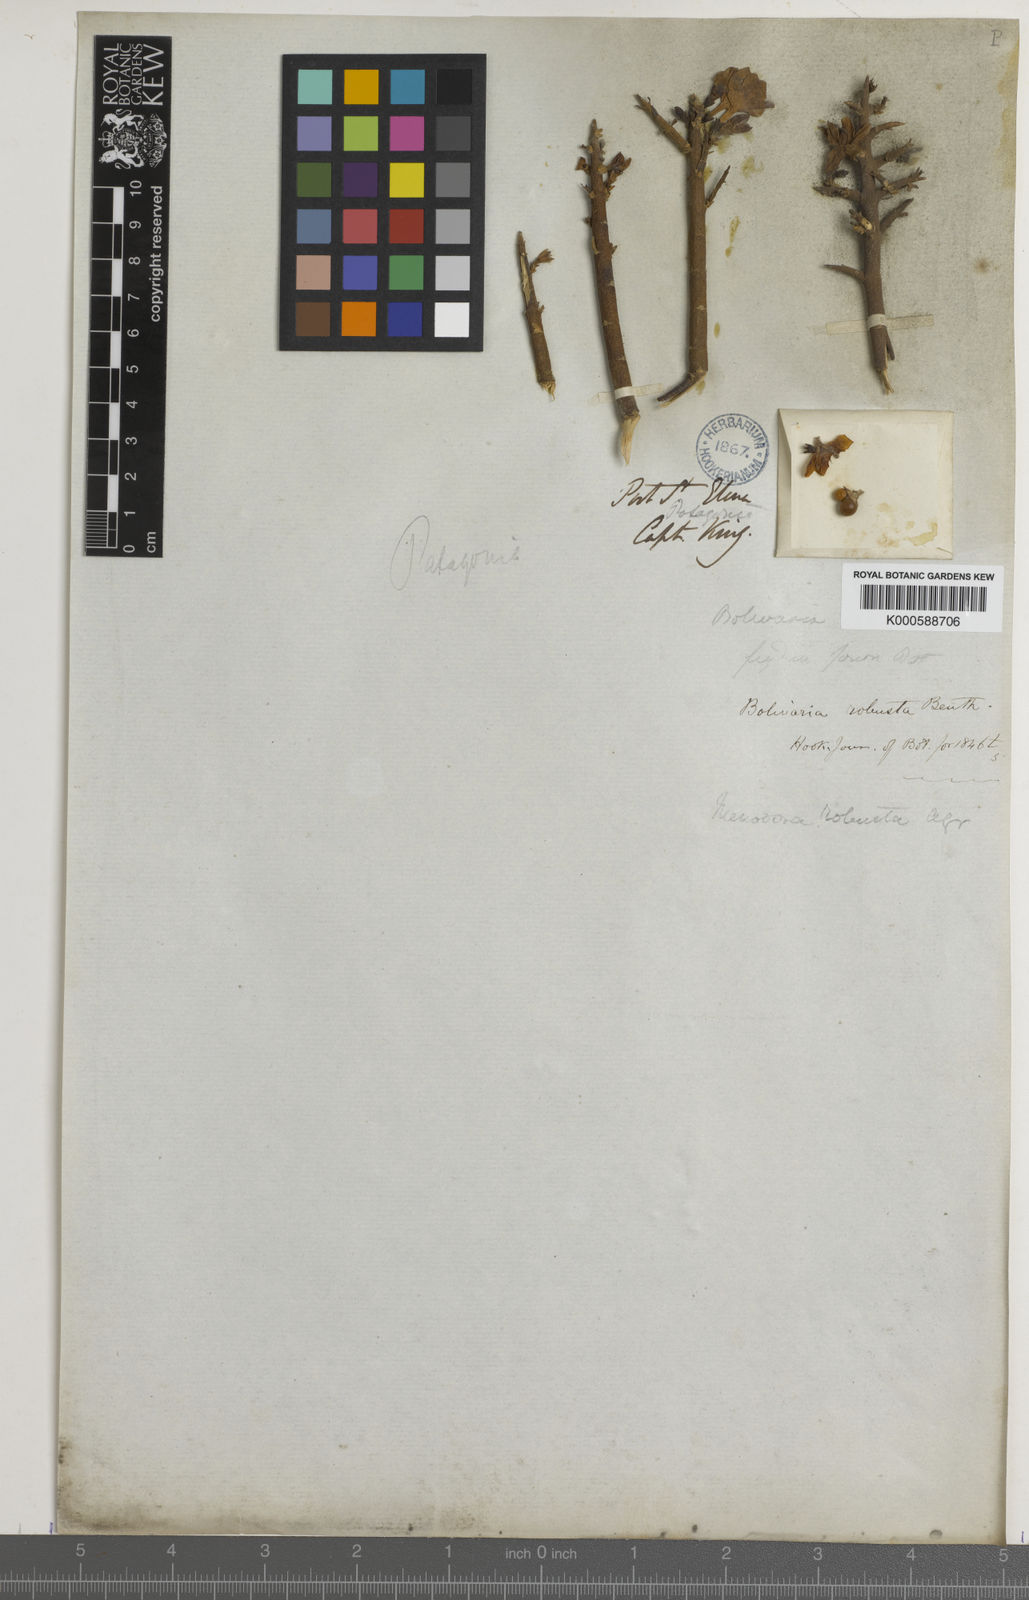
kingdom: Plantae
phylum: Tracheophyta
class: Magnoliopsida
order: Lamiales
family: Oleaceae
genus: Menodora
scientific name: Menodora robusta
